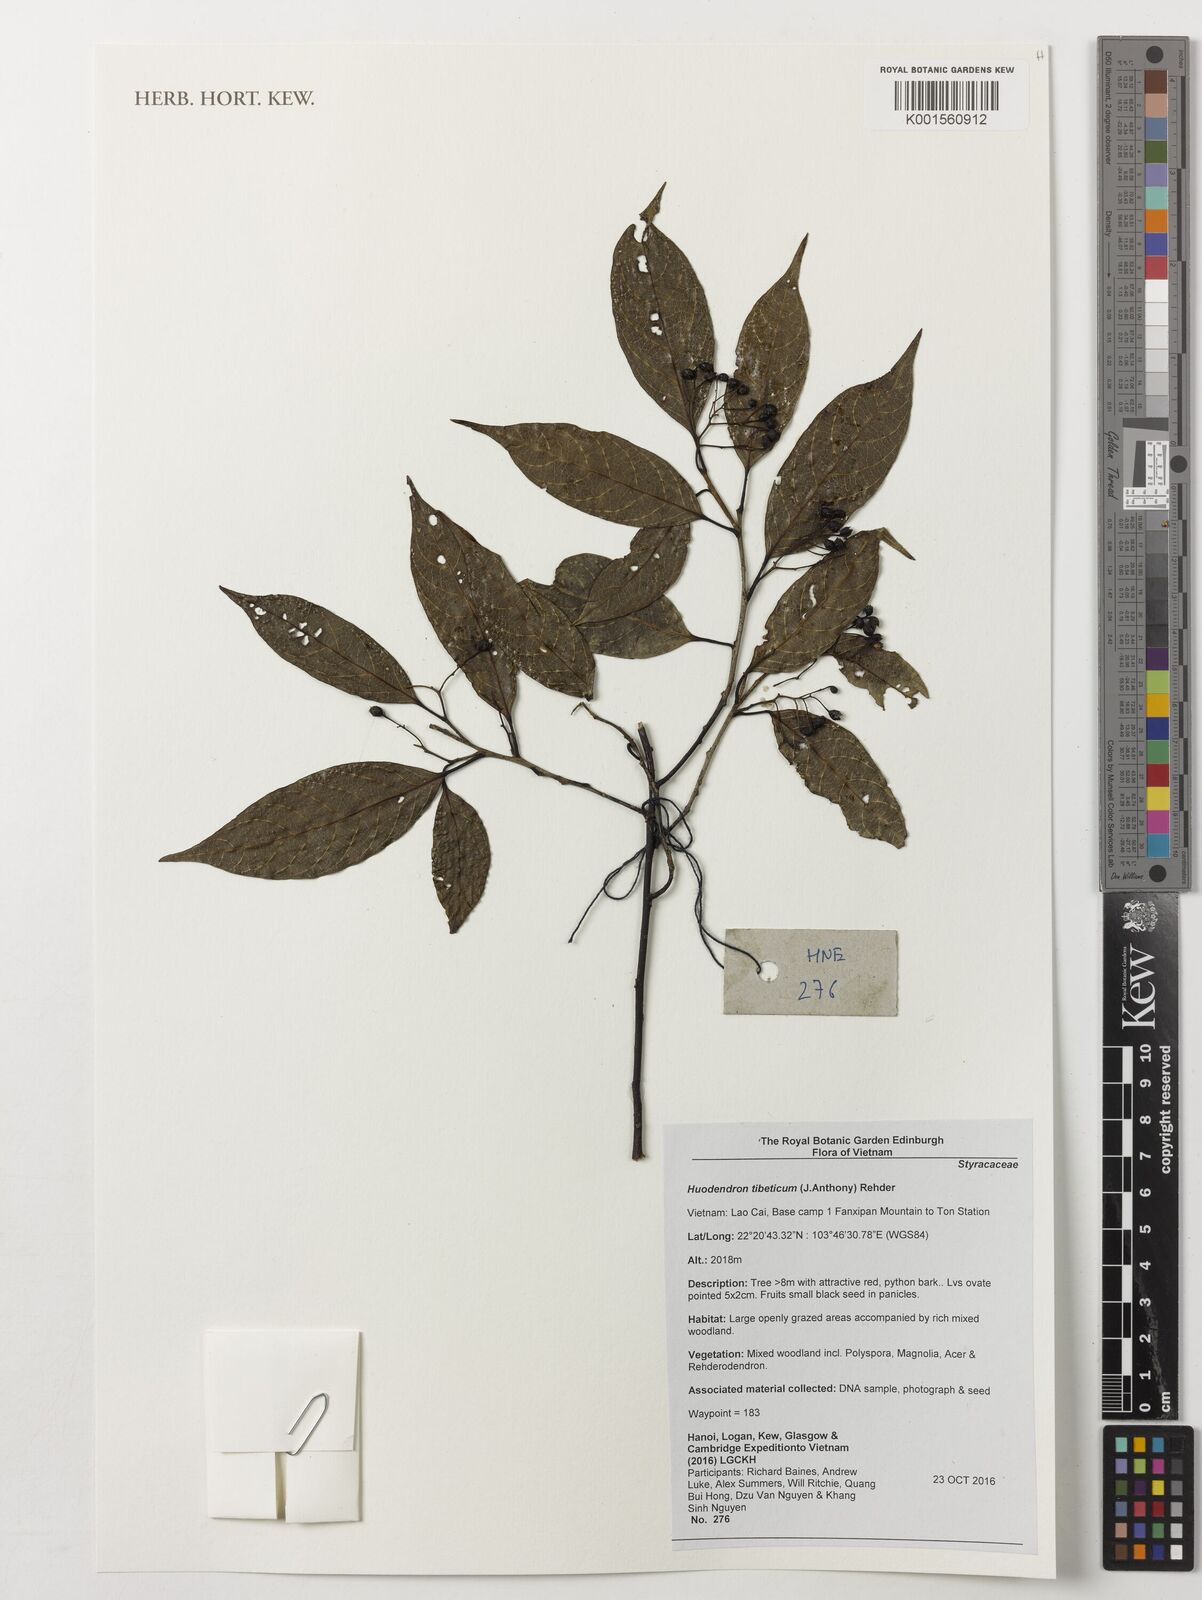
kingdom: Plantae
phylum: Tracheophyta
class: Magnoliopsida
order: Ericales
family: Styracaceae
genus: Huodendron
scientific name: Huodendron tibeticum
